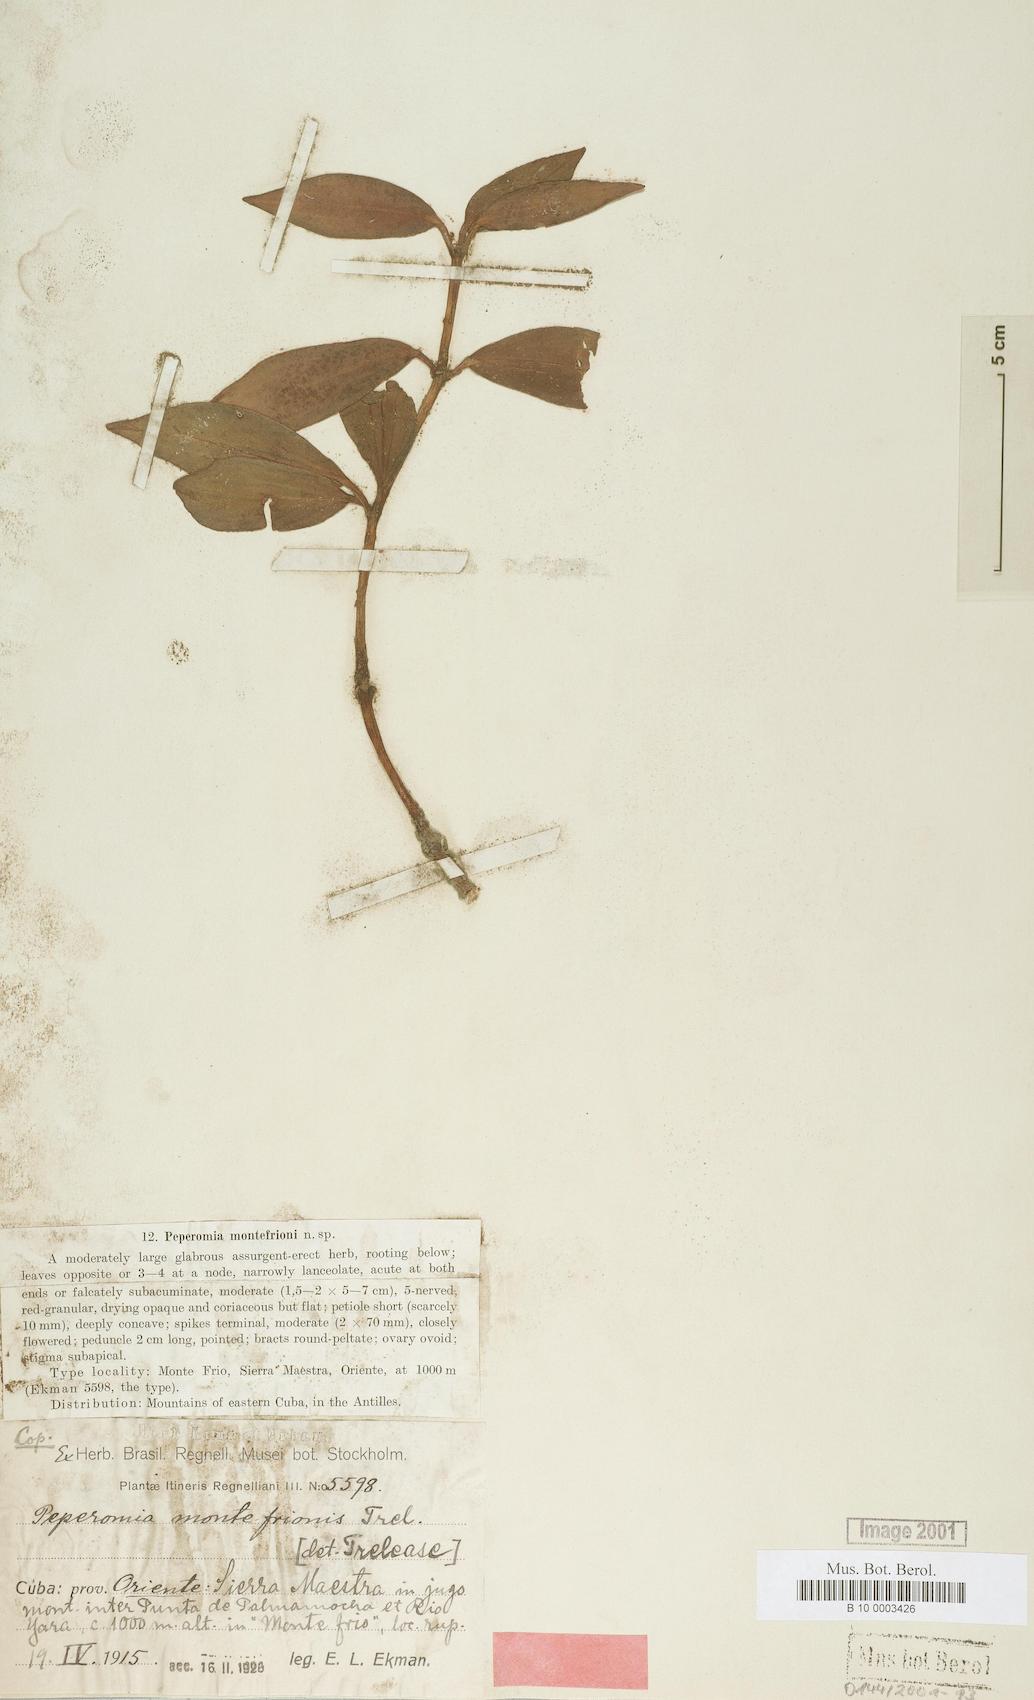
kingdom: Plantae
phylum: Tracheophyta
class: Magnoliopsida
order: Piperales
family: Piperaceae
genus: Peperomia
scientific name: Peperomia septemnervis
